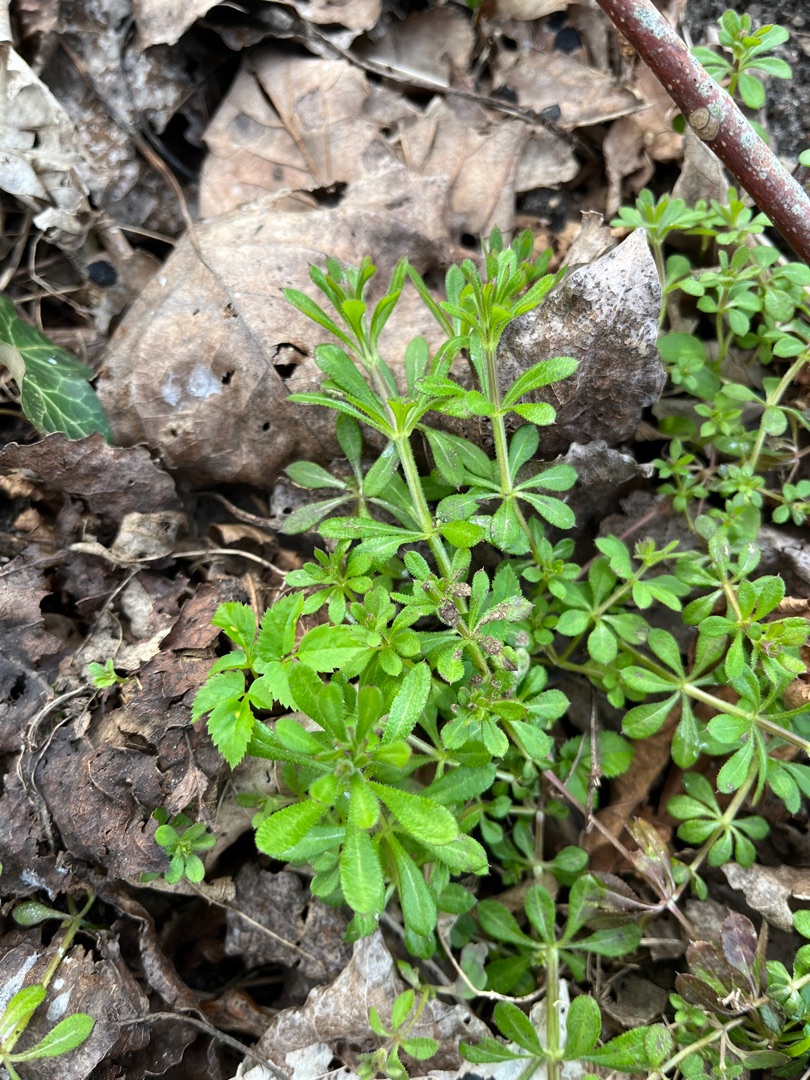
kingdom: Plantae
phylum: Tracheophyta
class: Magnoliopsida
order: Gentianales
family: Rubiaceae
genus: Galium
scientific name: Galium aparine
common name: Burre-snerre
